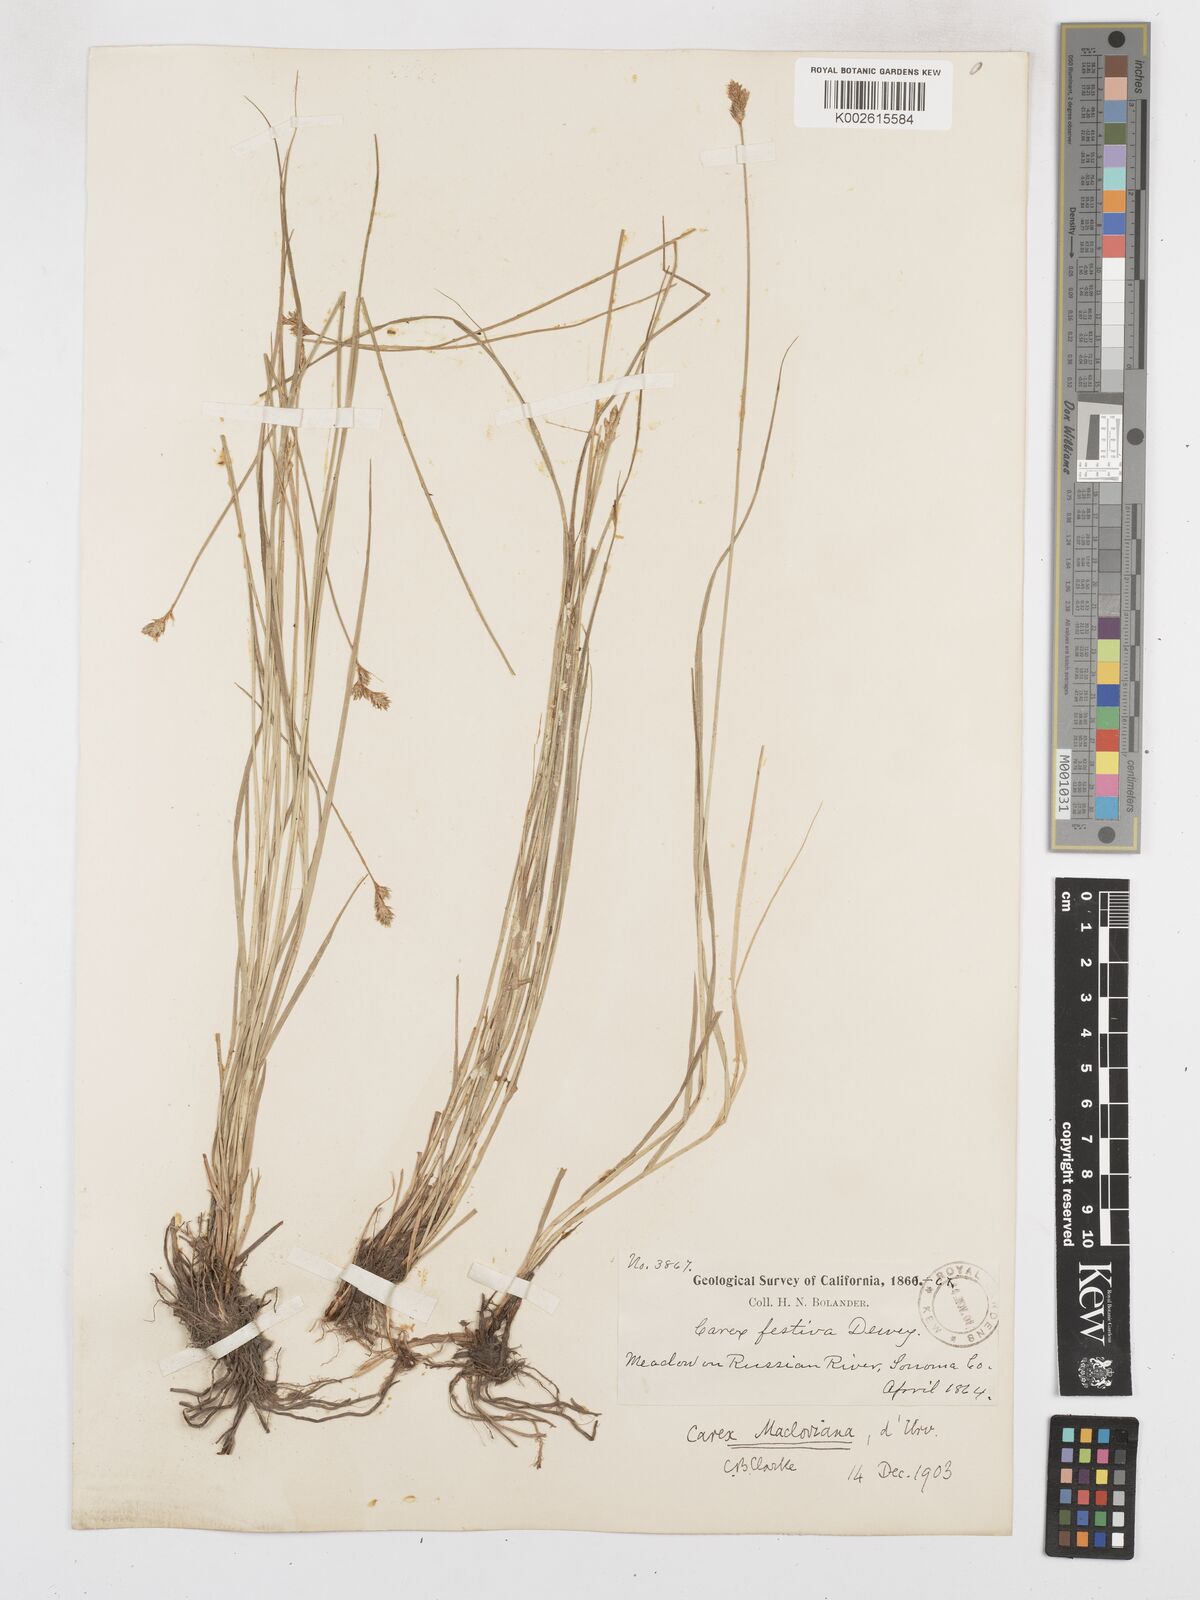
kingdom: Plantae
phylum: Tracheophyta
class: Liliopsida
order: Poales
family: Cyperaceae
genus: Carex
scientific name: Carex macloviana
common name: Falkland island sedge
